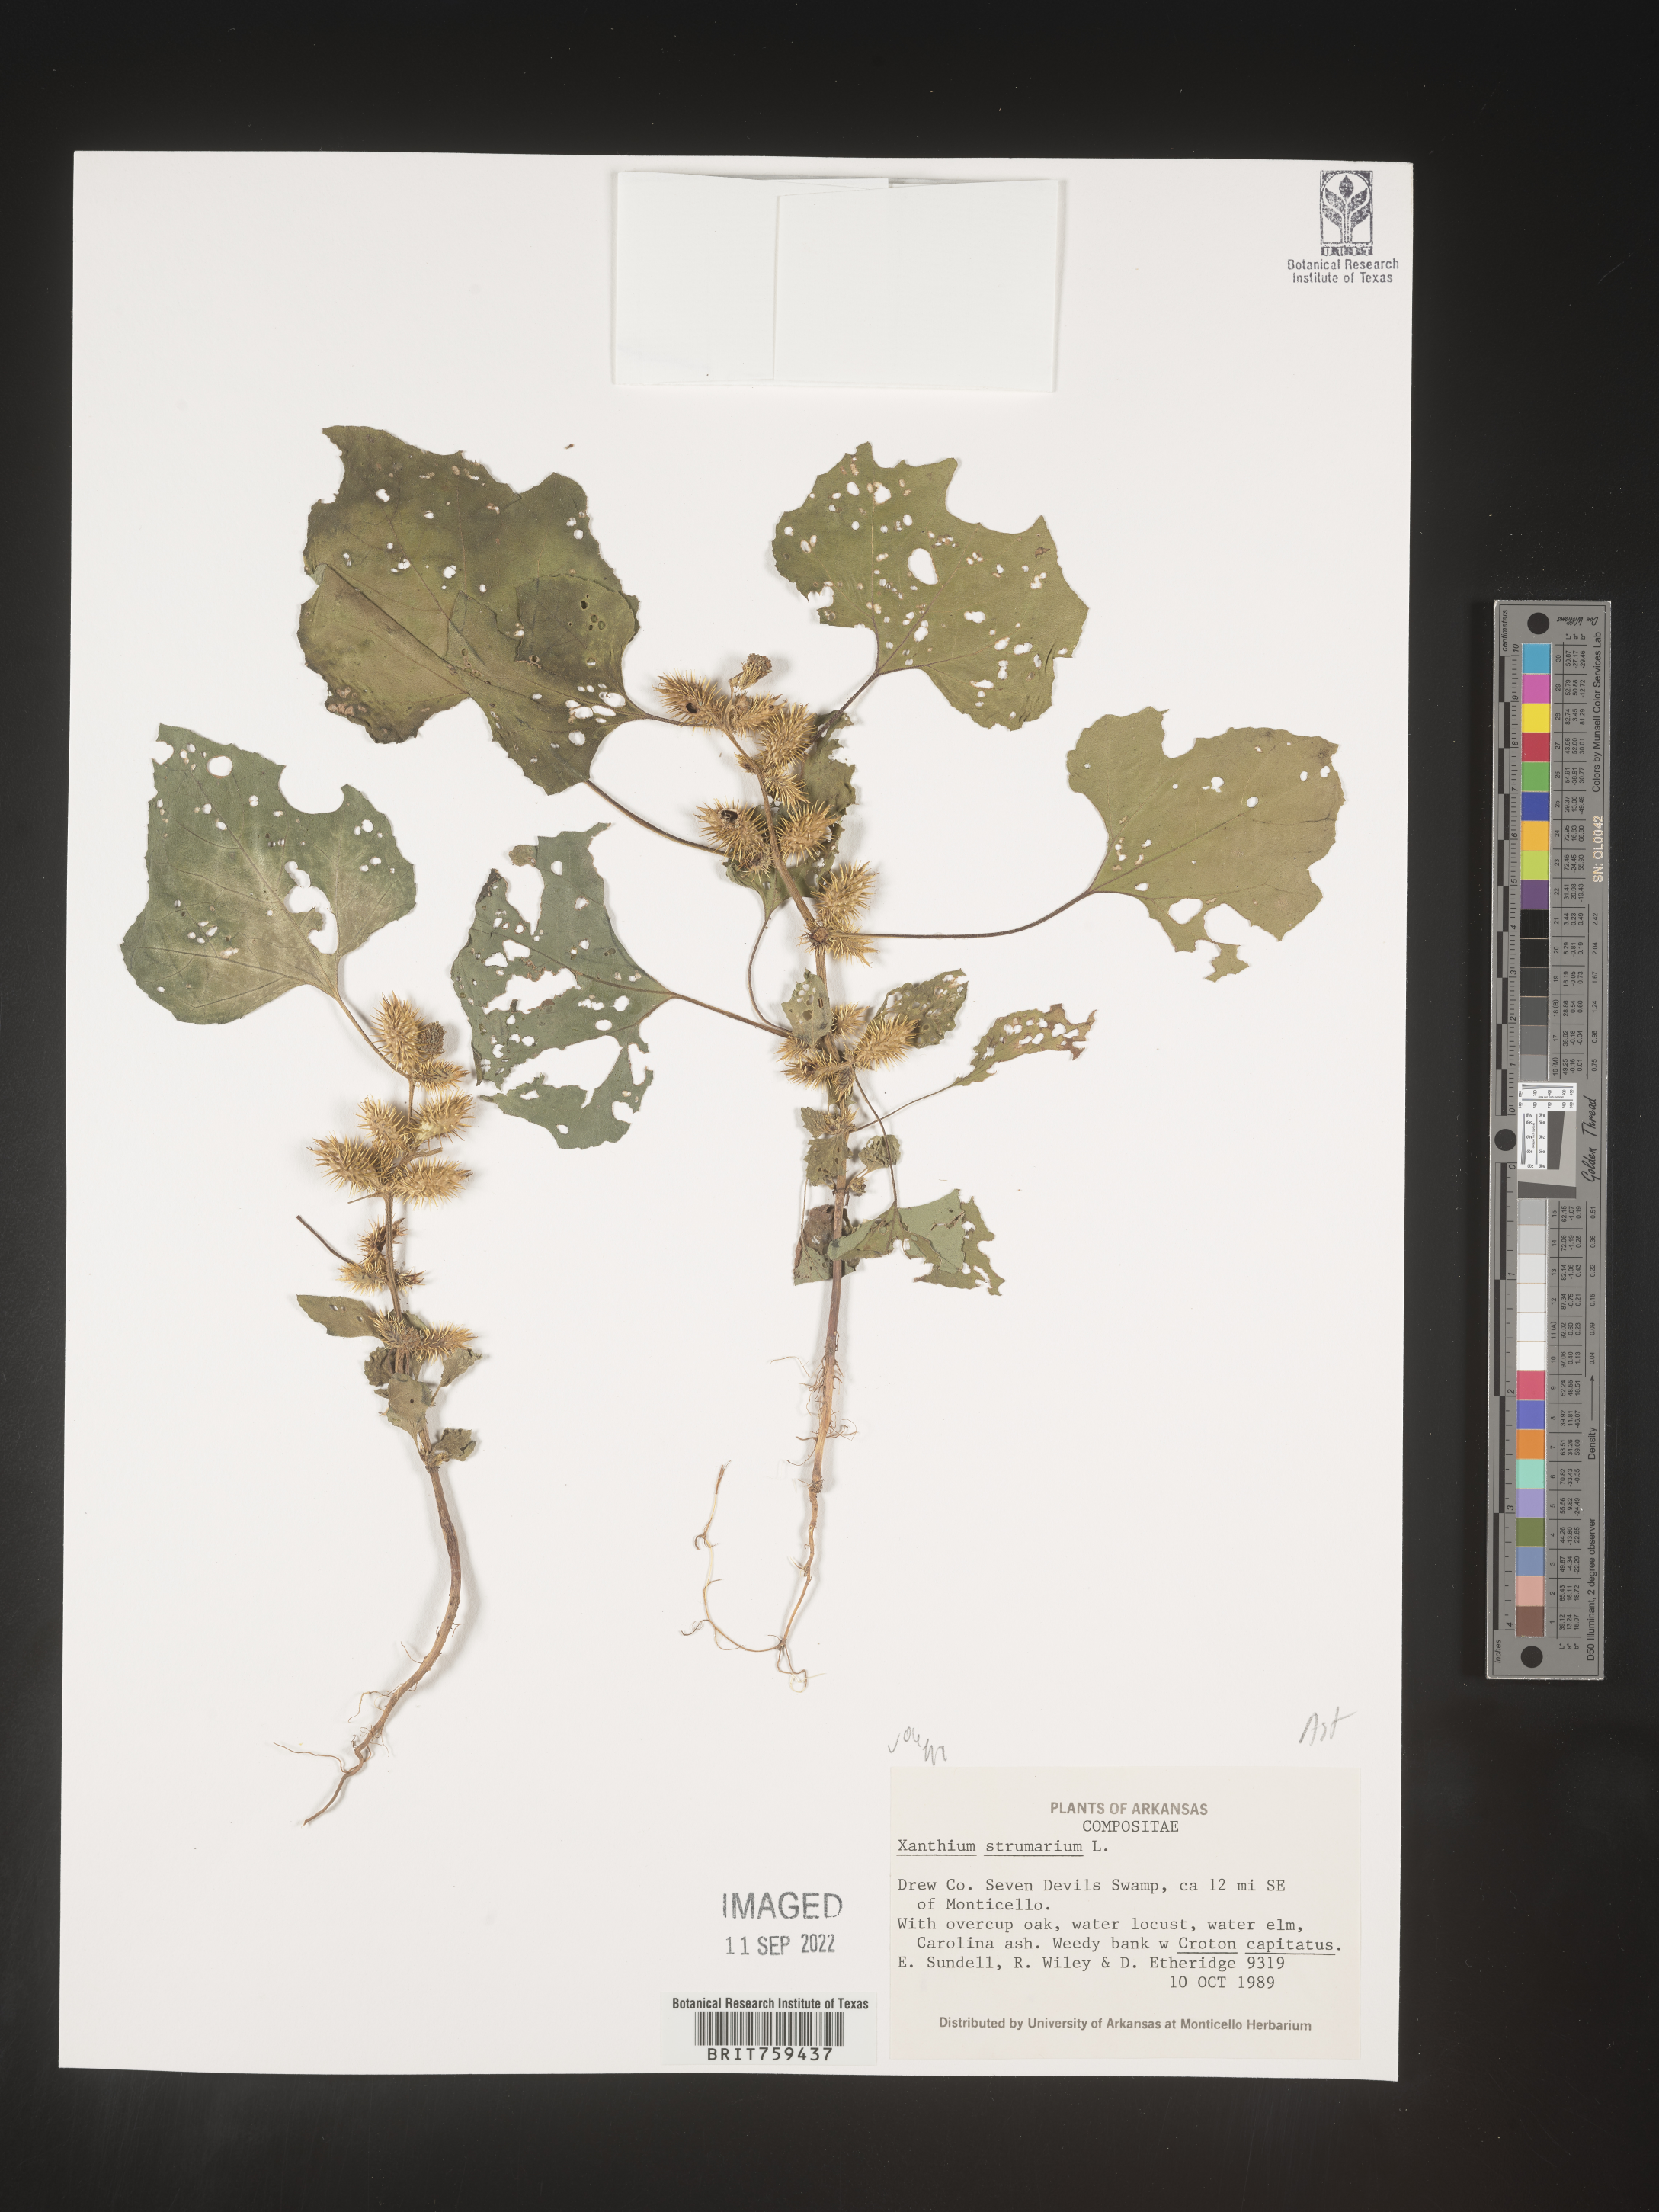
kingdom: Plantae
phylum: Tracheophyta
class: Magnoliopsida
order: Asterales
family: Asteraceae
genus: Xanthium
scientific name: Xanthium strumarium
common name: Rough cocklebur
